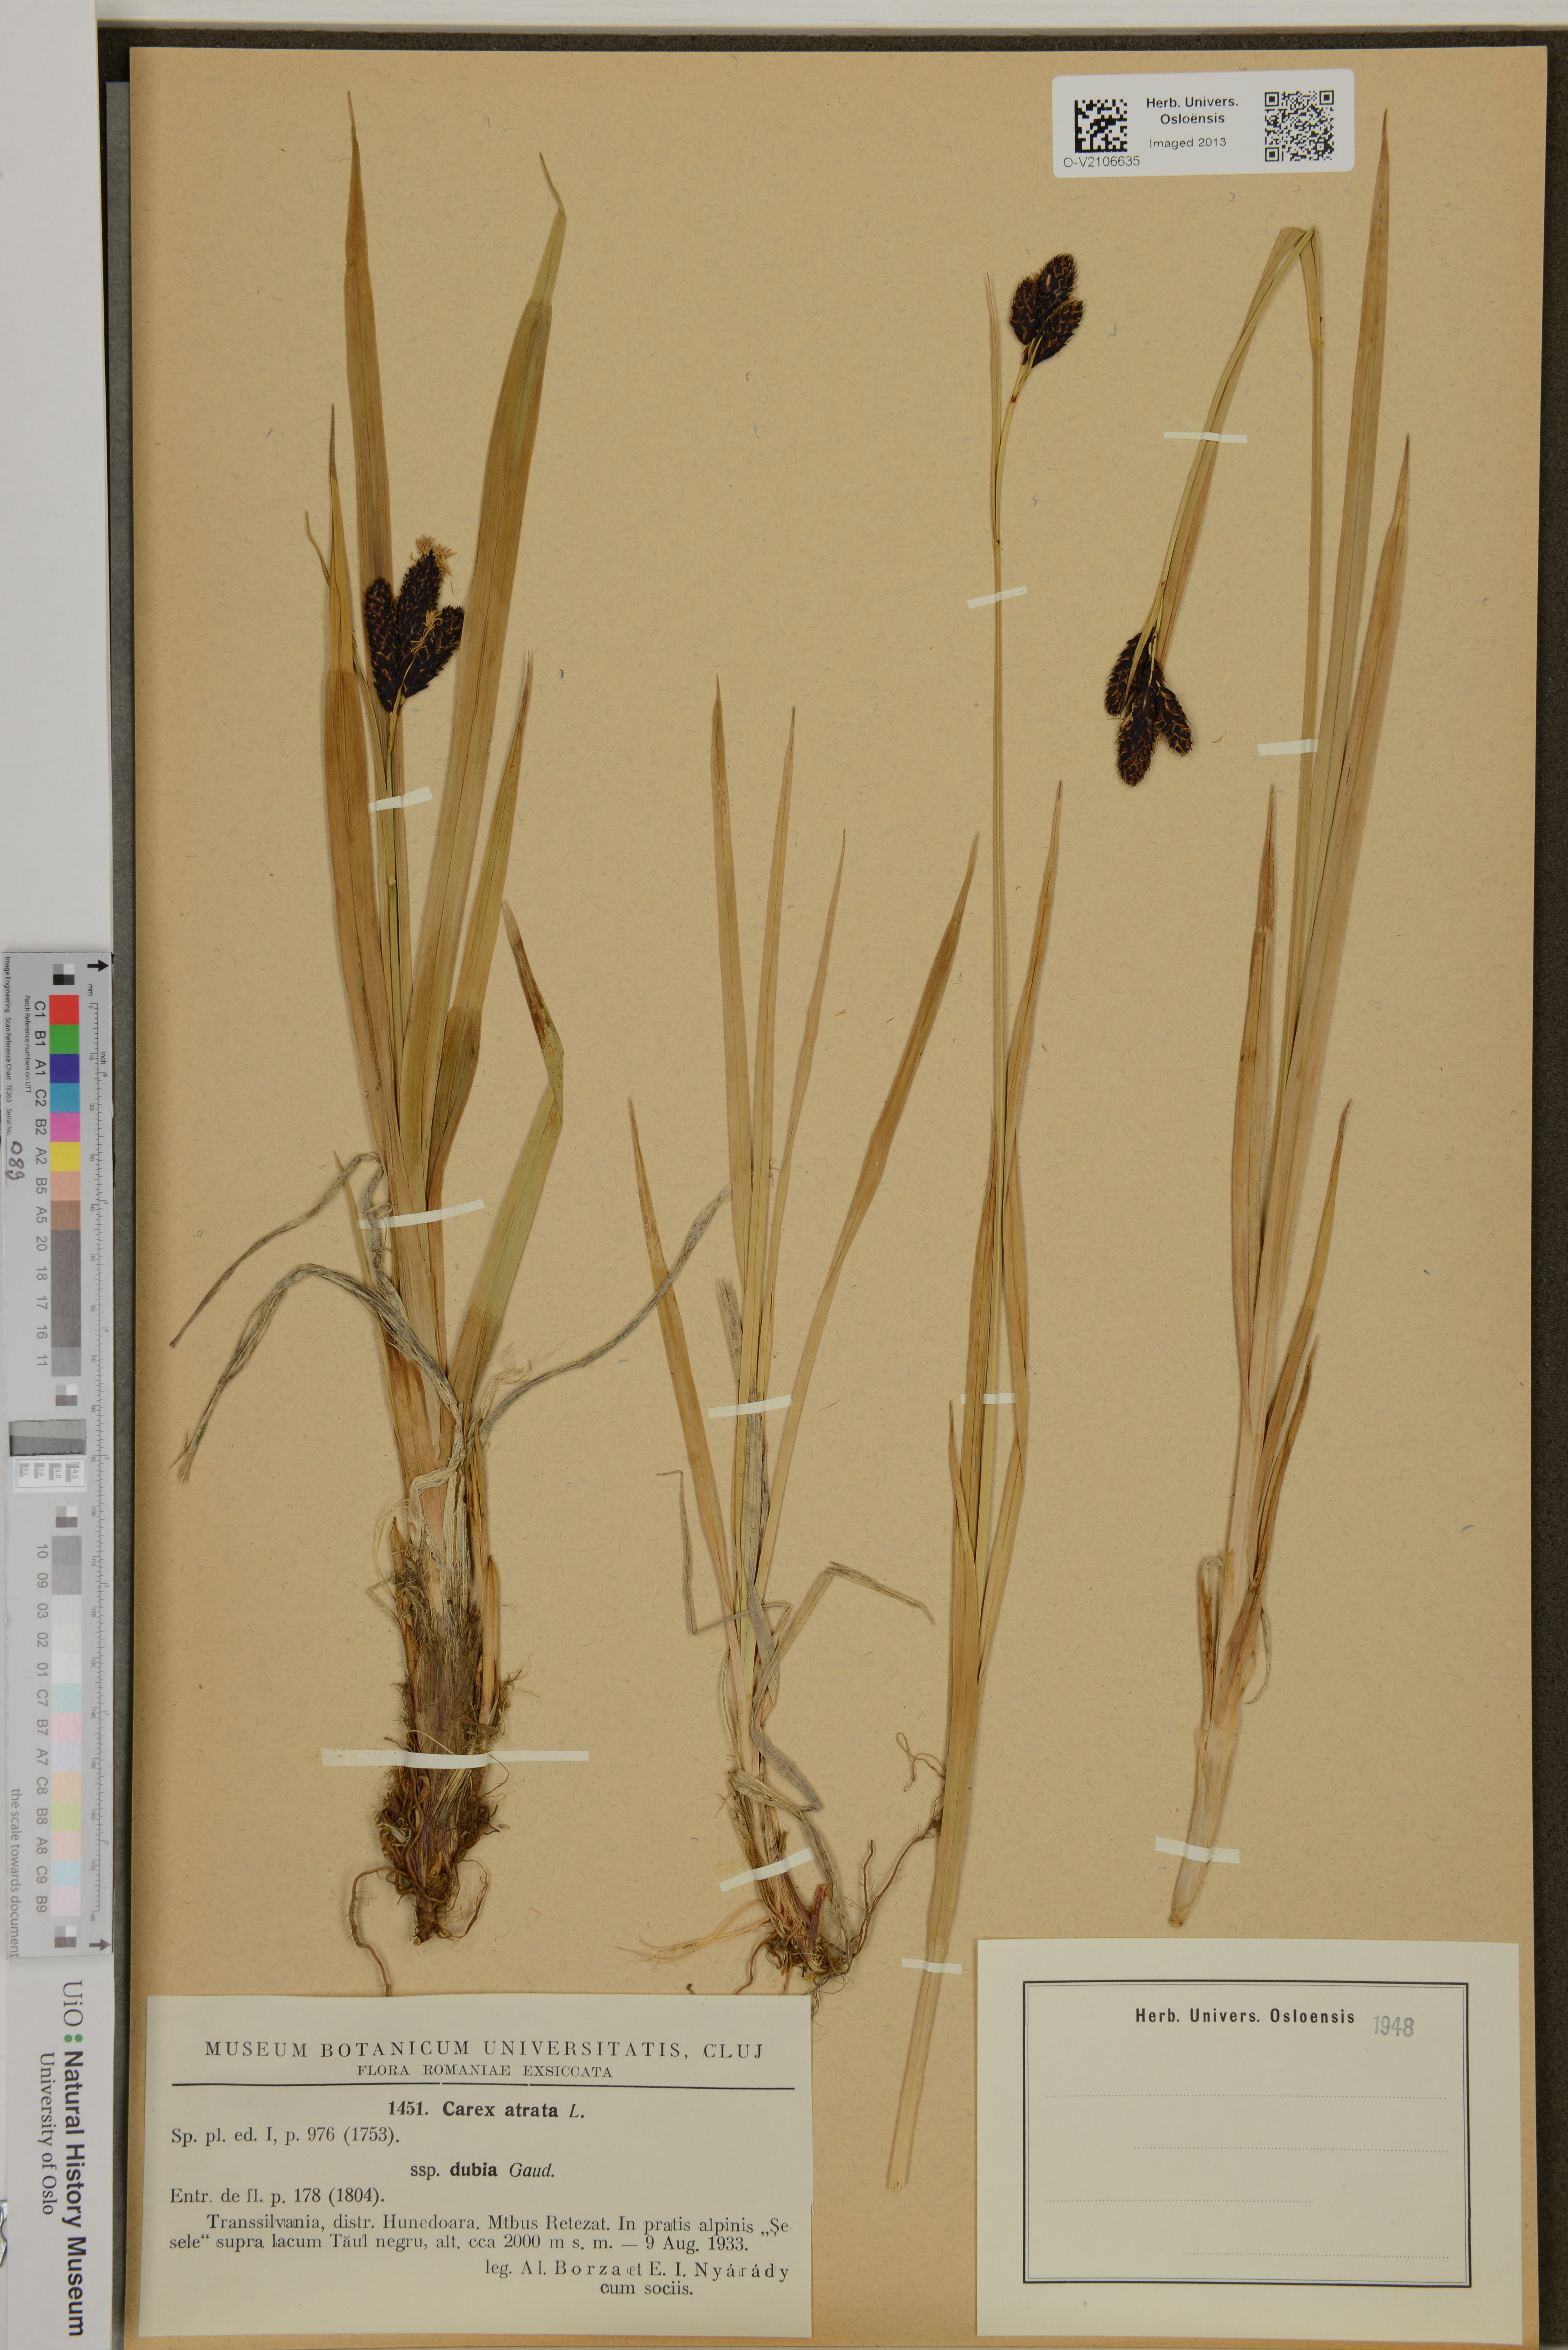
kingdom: Plantae
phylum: Tracheophyta
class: Liliopsida
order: Poales
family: Cyperaceae
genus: Carex
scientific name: Carex atrata
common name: Black alpine sedge
